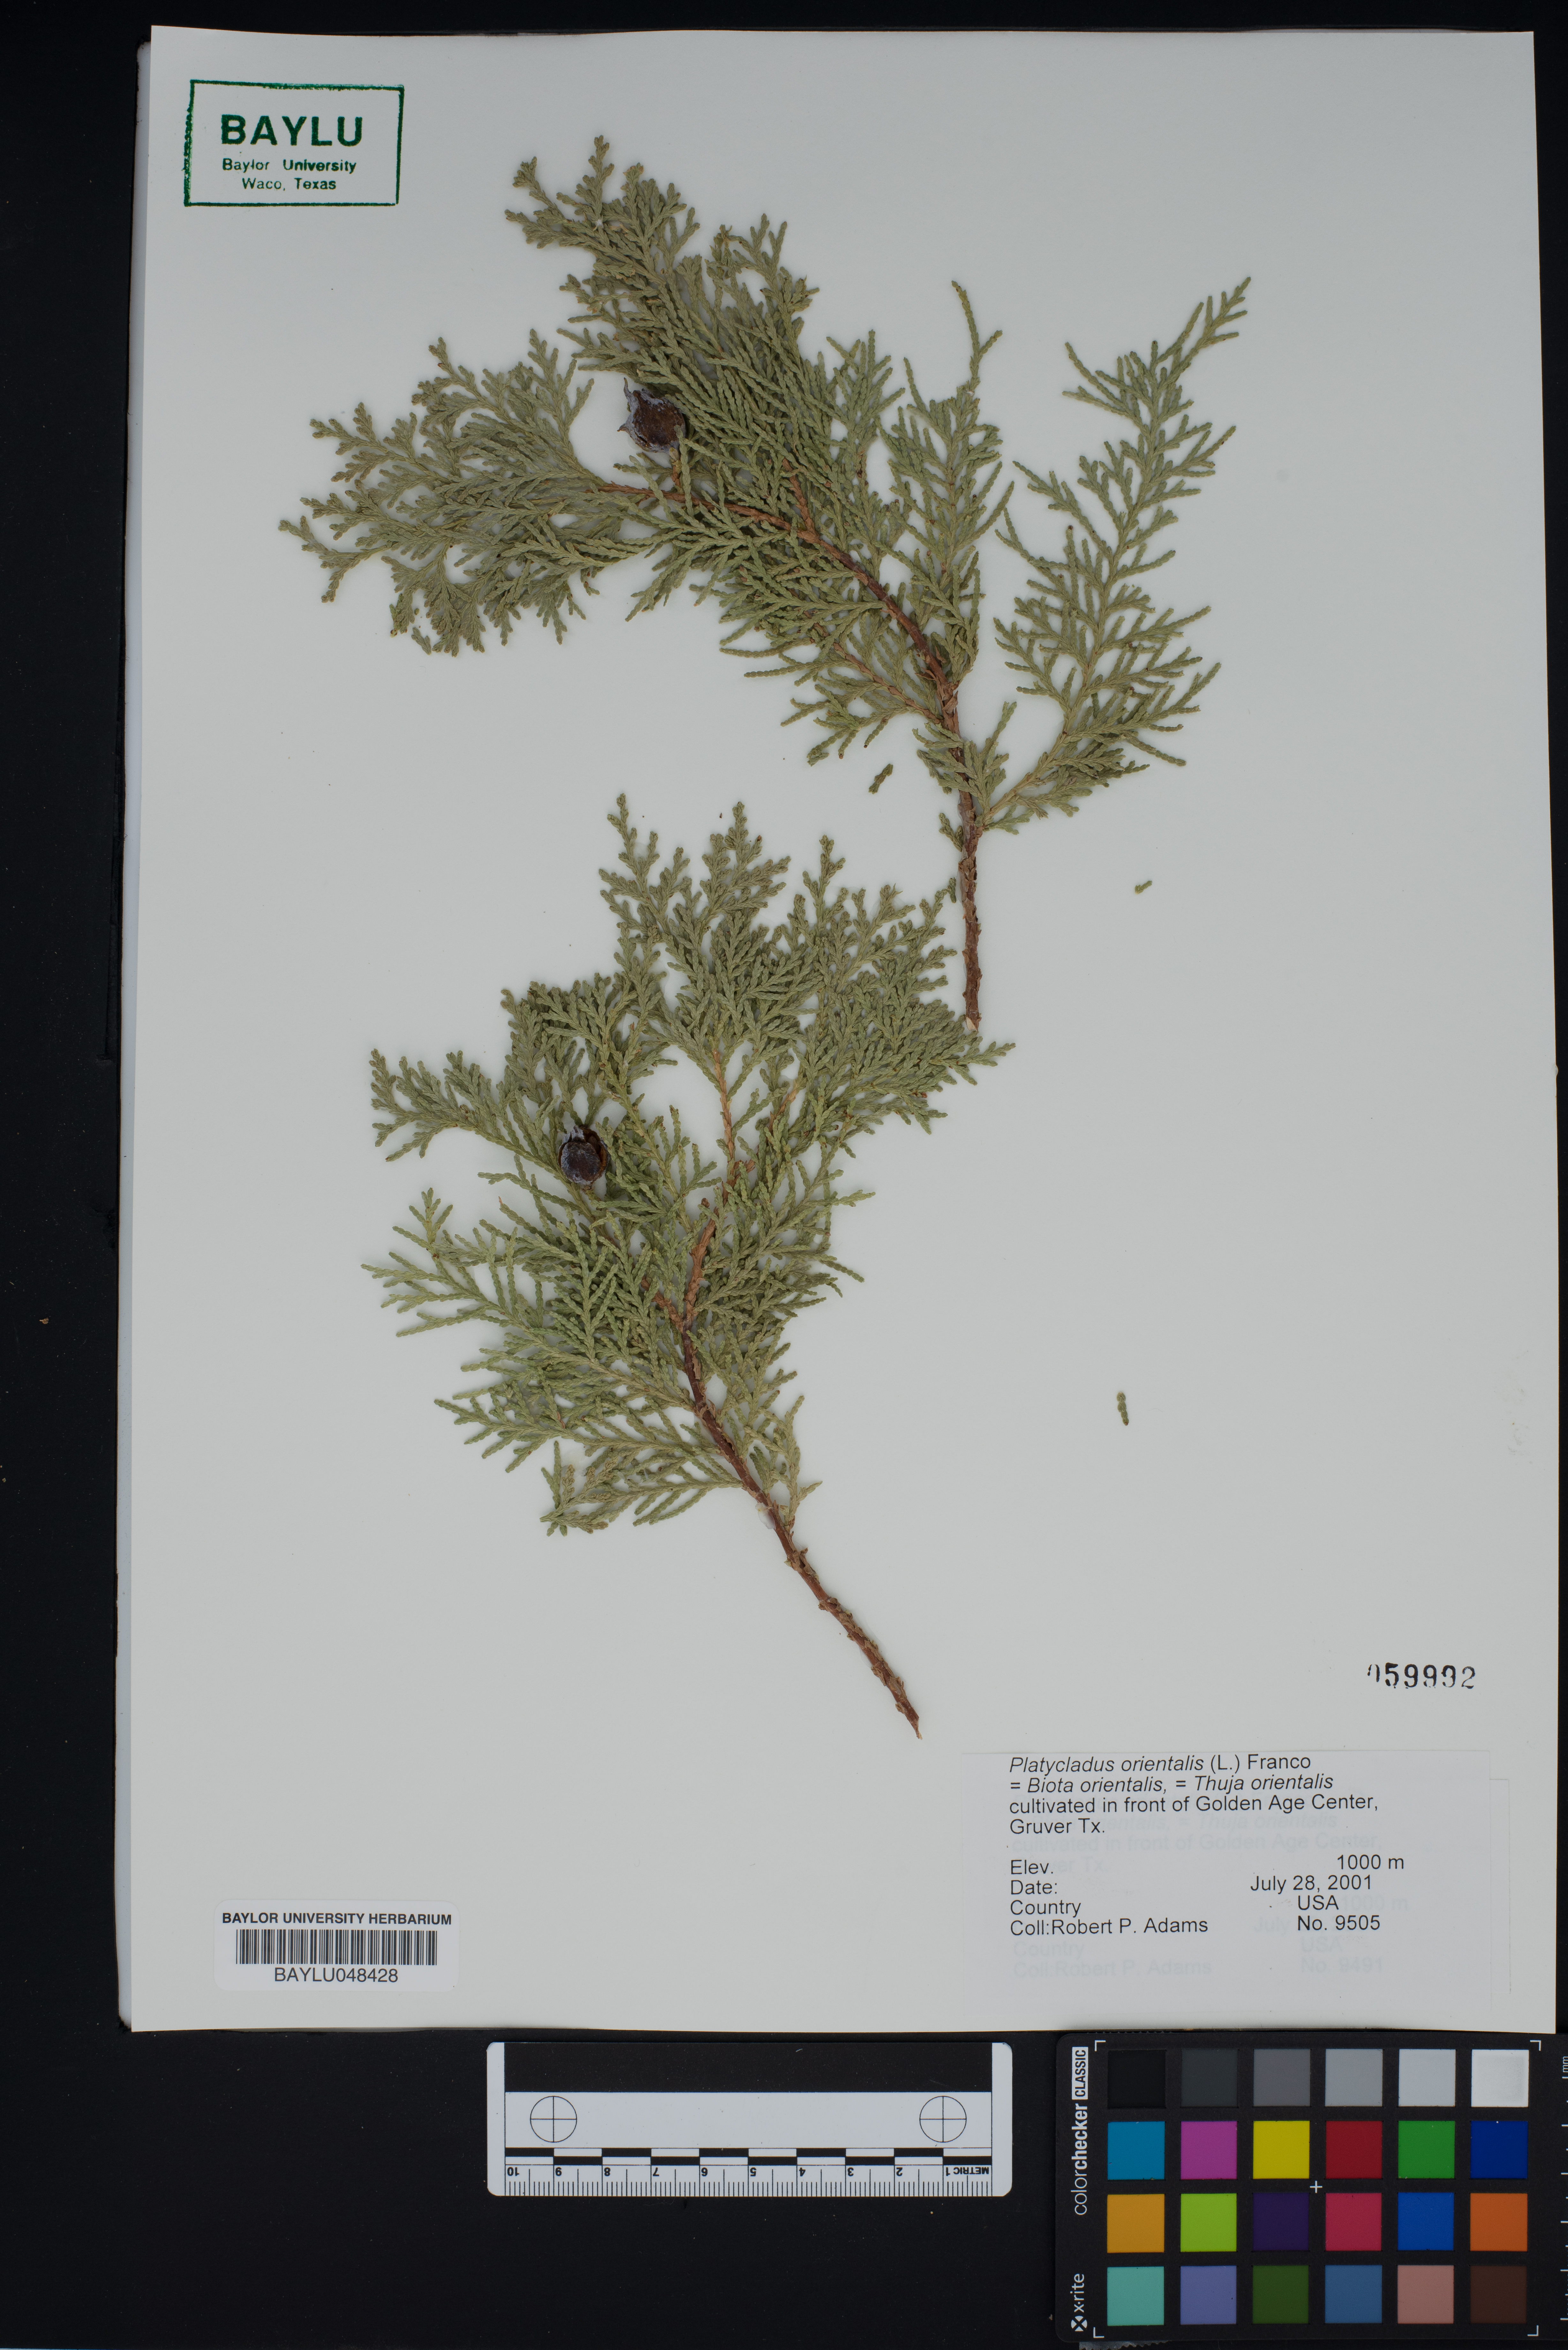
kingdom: Plantae
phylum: Tracheophyta
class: Pinopsida
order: Pinales
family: Cupressaceae
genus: Platycladus
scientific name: Platycladus orientalis
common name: Chinese thuja
